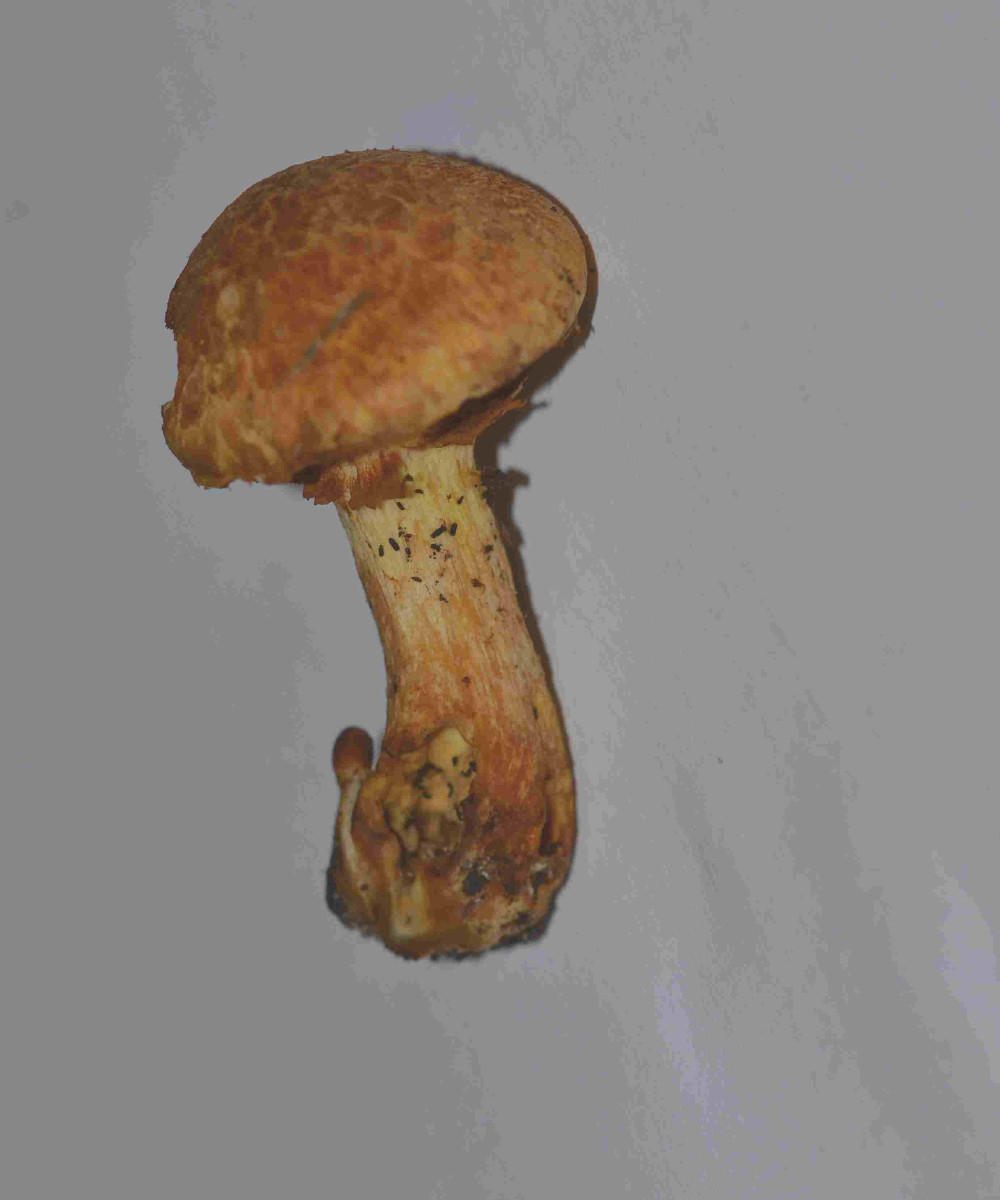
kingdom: Fungi
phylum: Basidiomycota
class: Agaricomycetes
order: Agaricales
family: Hymenogastraceae
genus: Gymnopilus
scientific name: Gymnopilus spectabilis
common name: fibret flammehat
